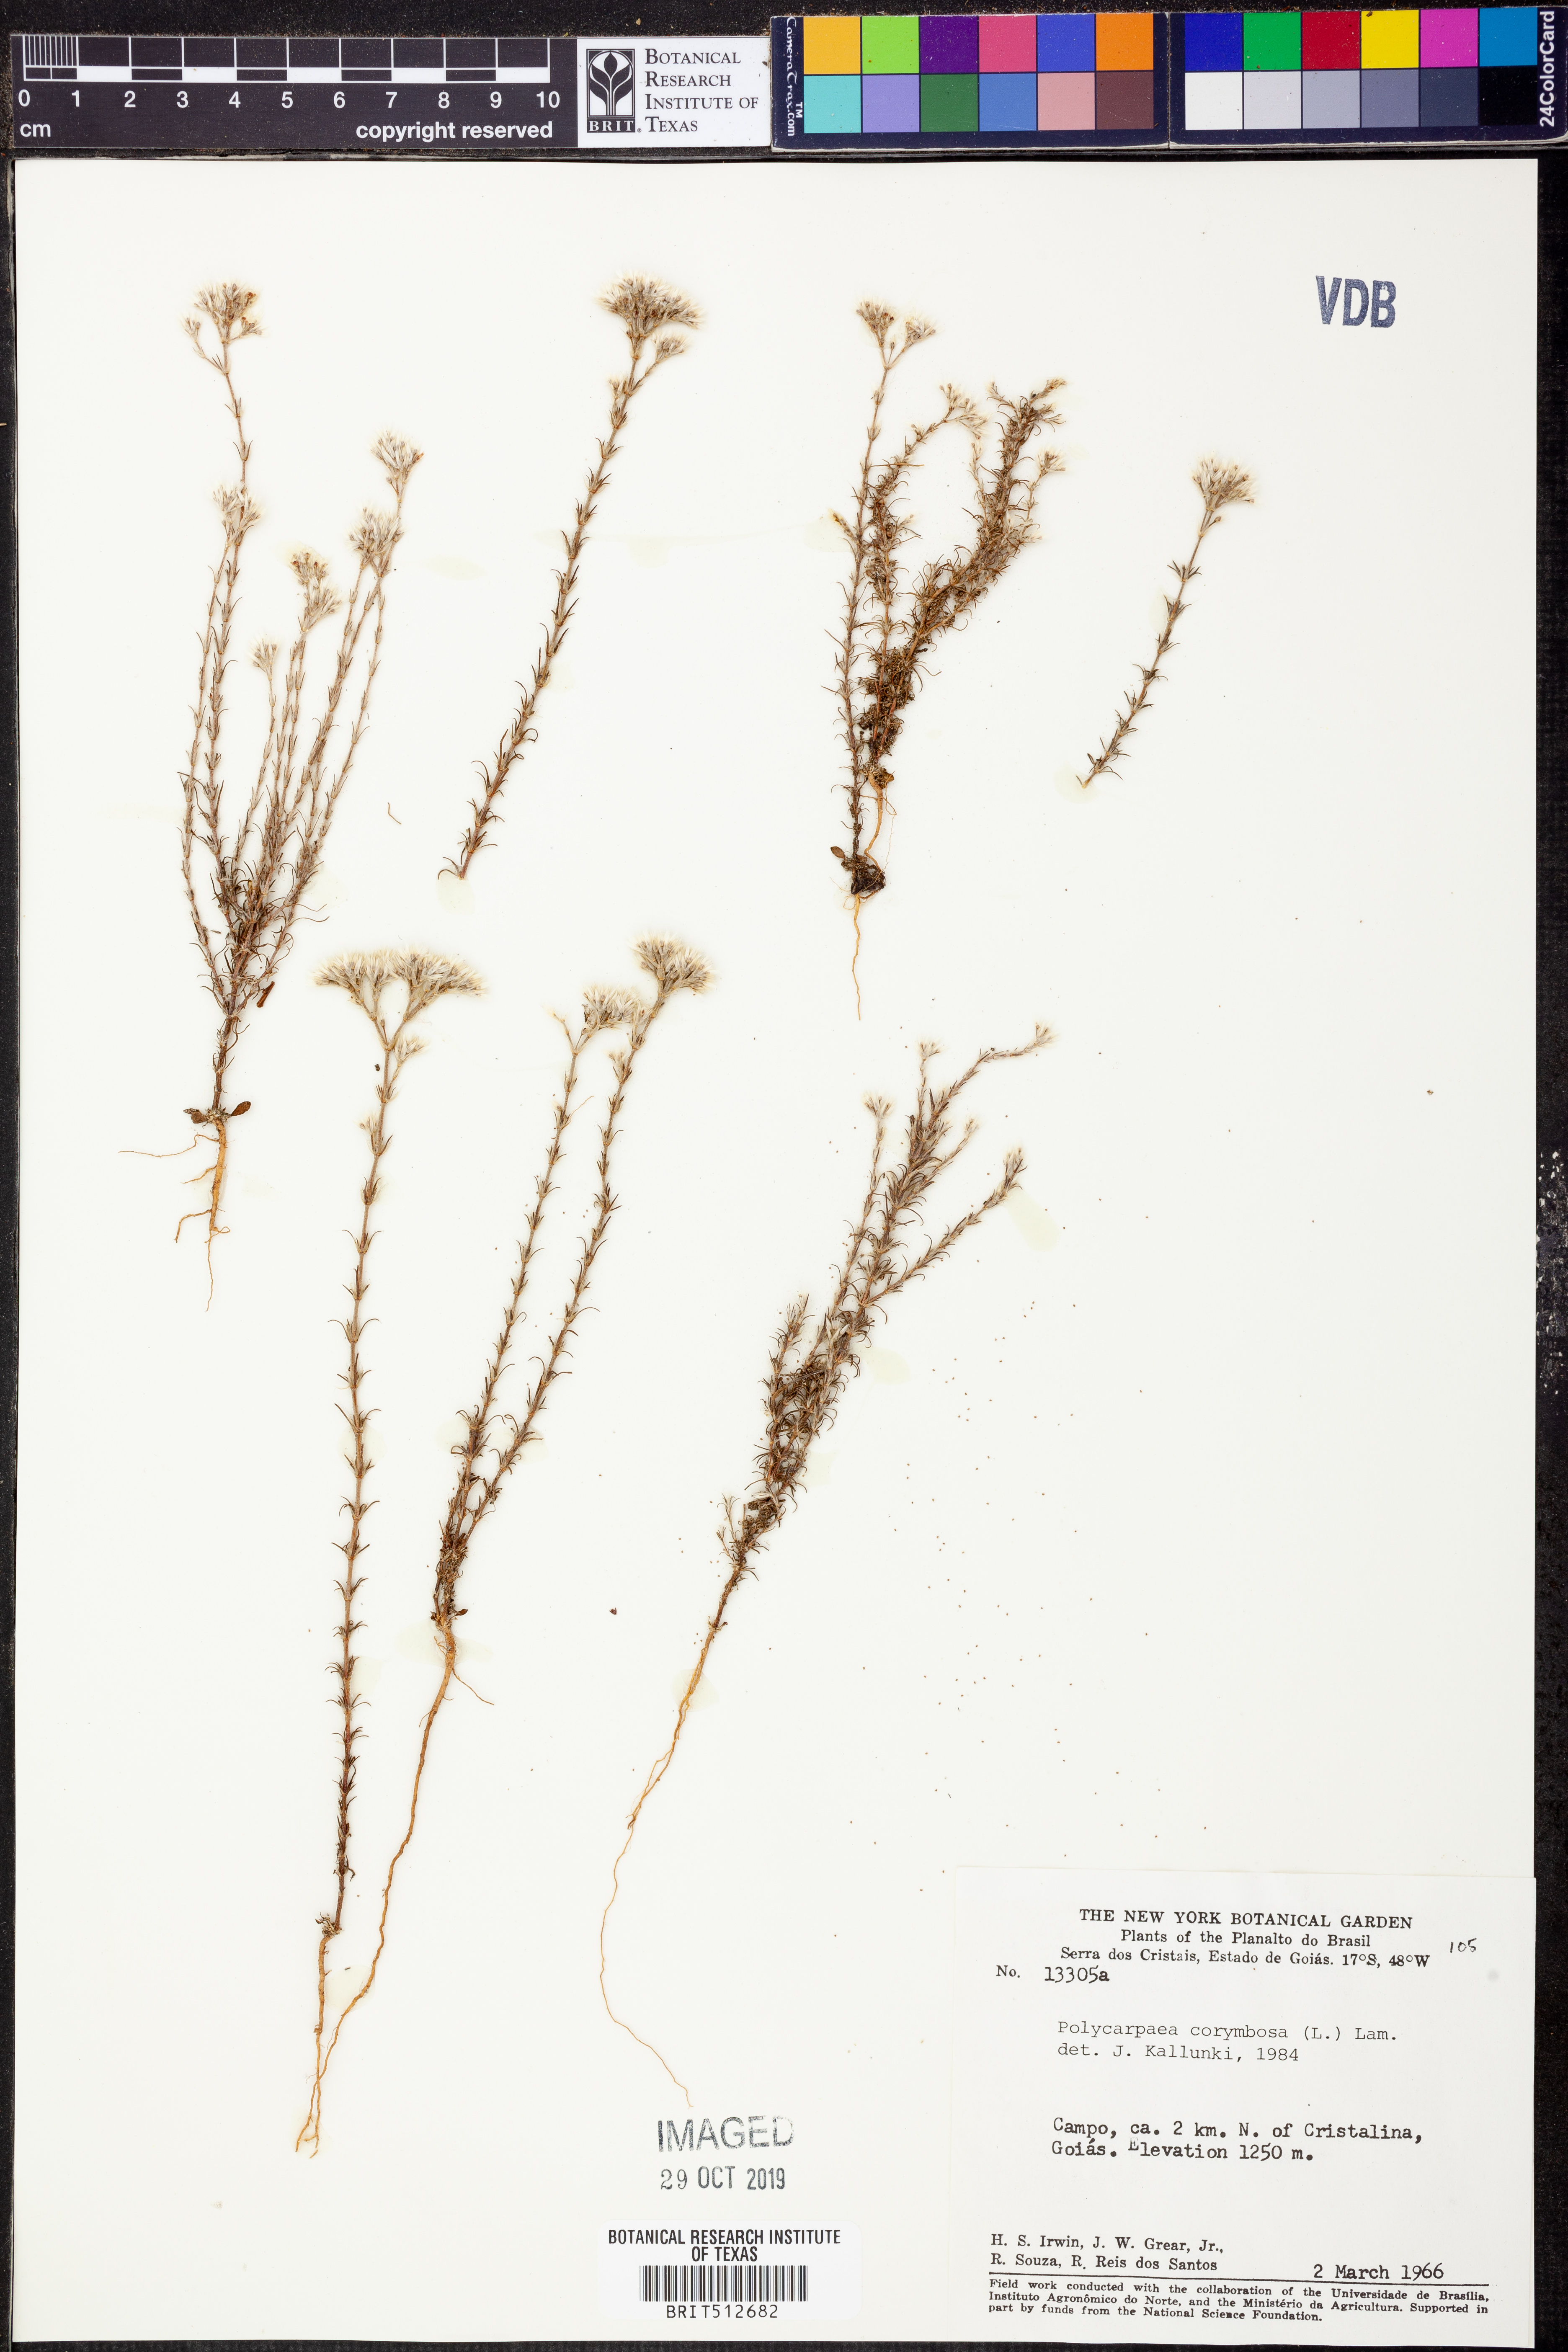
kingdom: Plantae
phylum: Tracheophyta
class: Magnoliopsida
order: Caryophyllales
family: Caryophyllaceae
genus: Polycarpaea
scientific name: Polycarpaea corymbosa
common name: Oldman's cap
